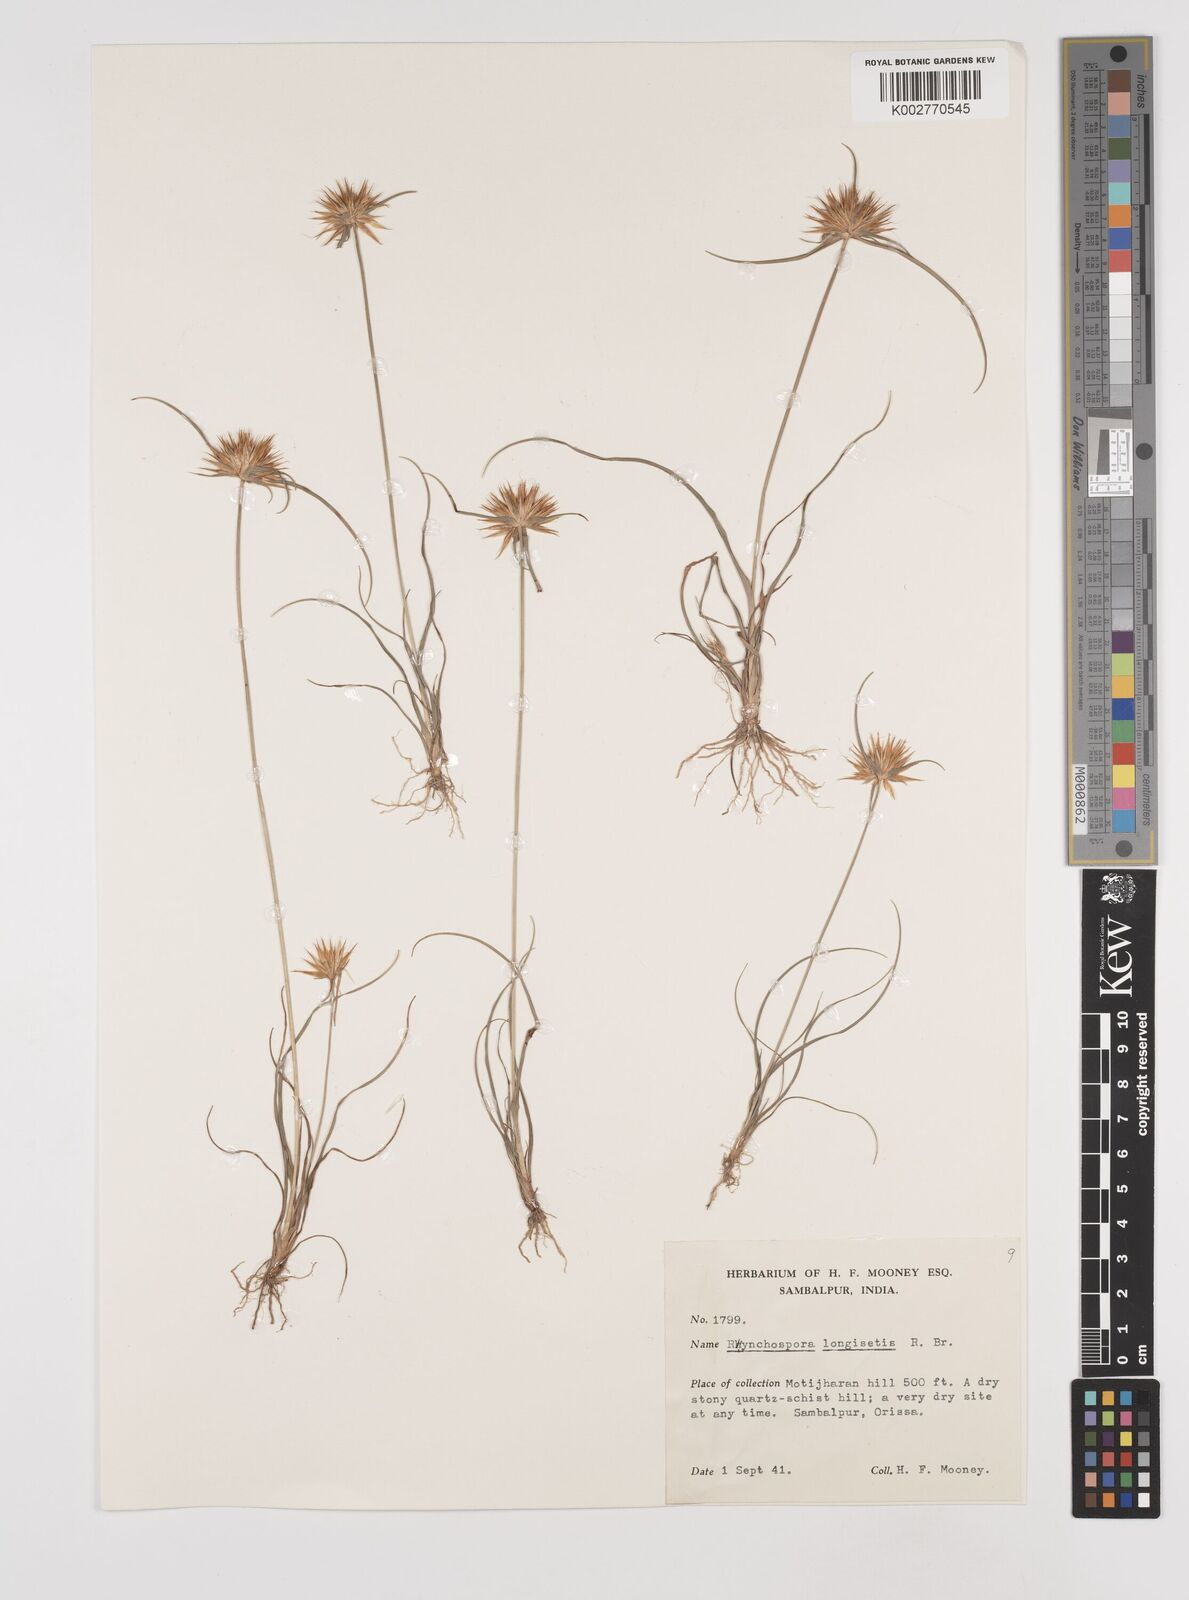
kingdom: Plantae
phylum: Tracheophyta
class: Liliopsida
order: Poales
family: Cyperaceae
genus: Rhynchospora
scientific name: Rhynchospora longisetis
